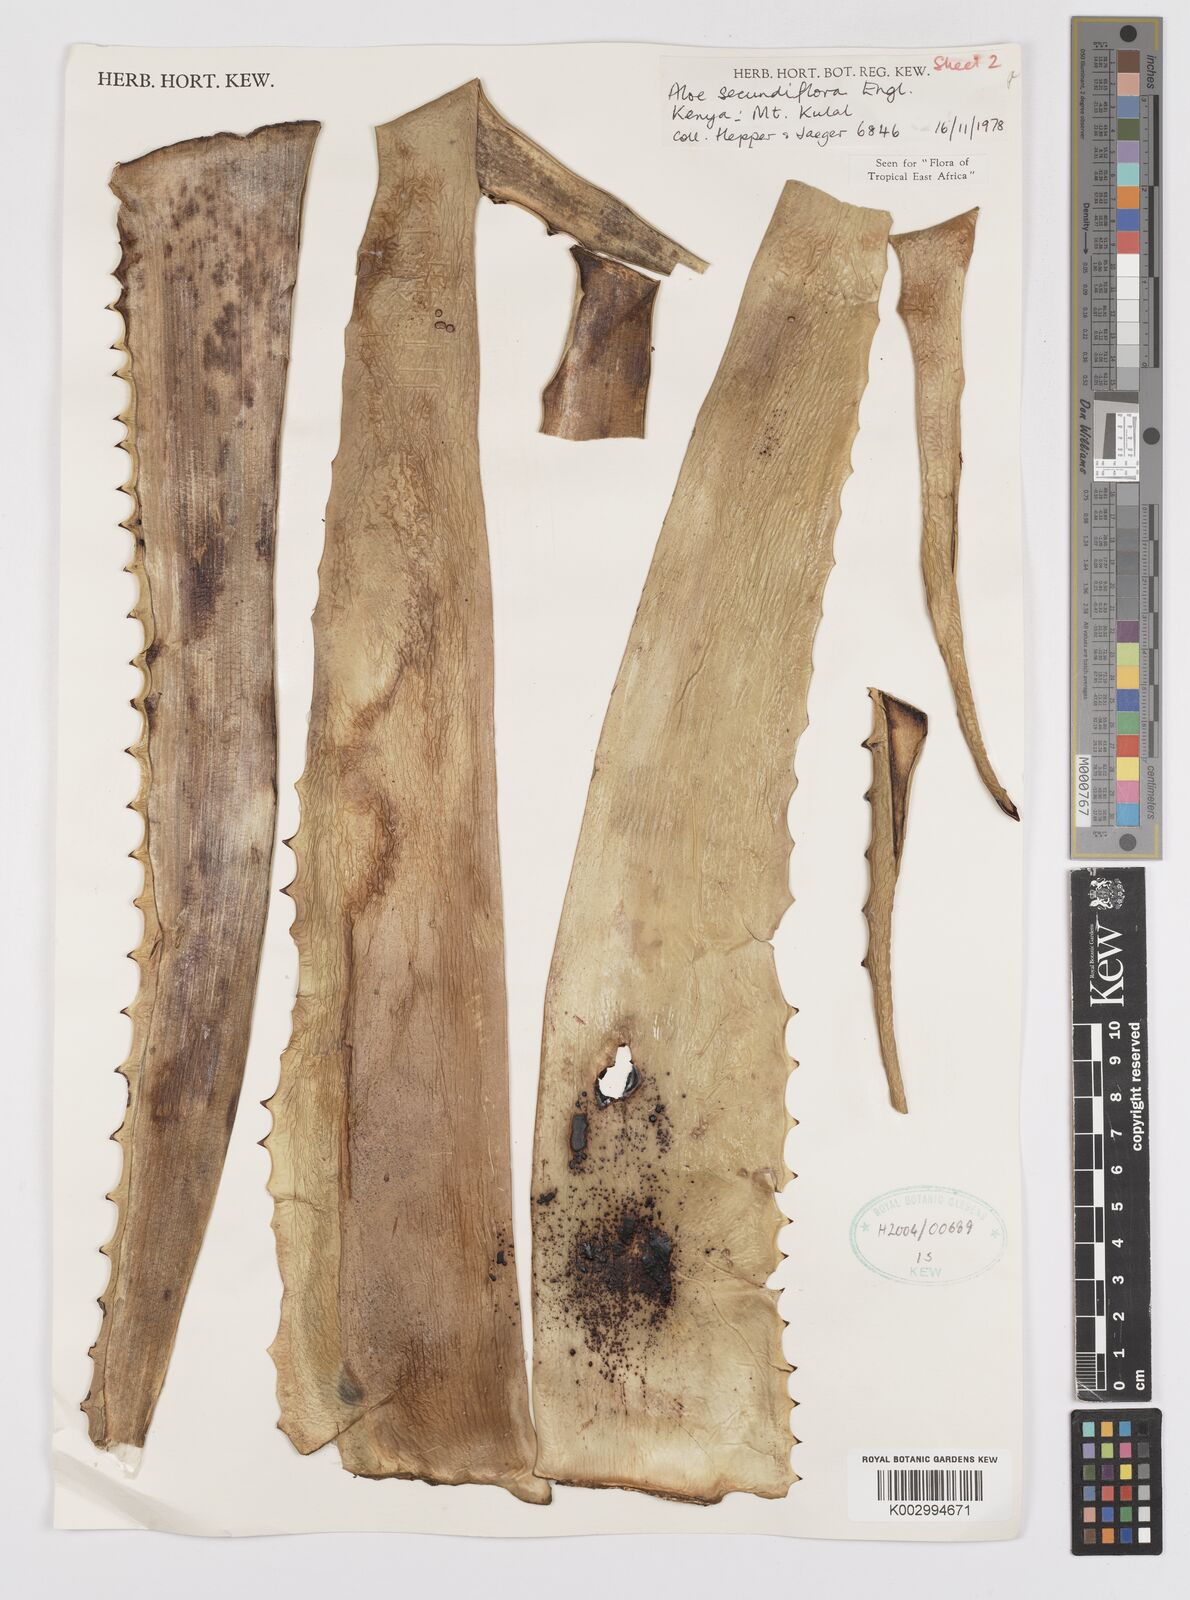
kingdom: Plantae
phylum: Tracheophyta
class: Liliopsida
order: Asparagales
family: Asphodelaceae
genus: Aloe
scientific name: Aloe secundiflora
